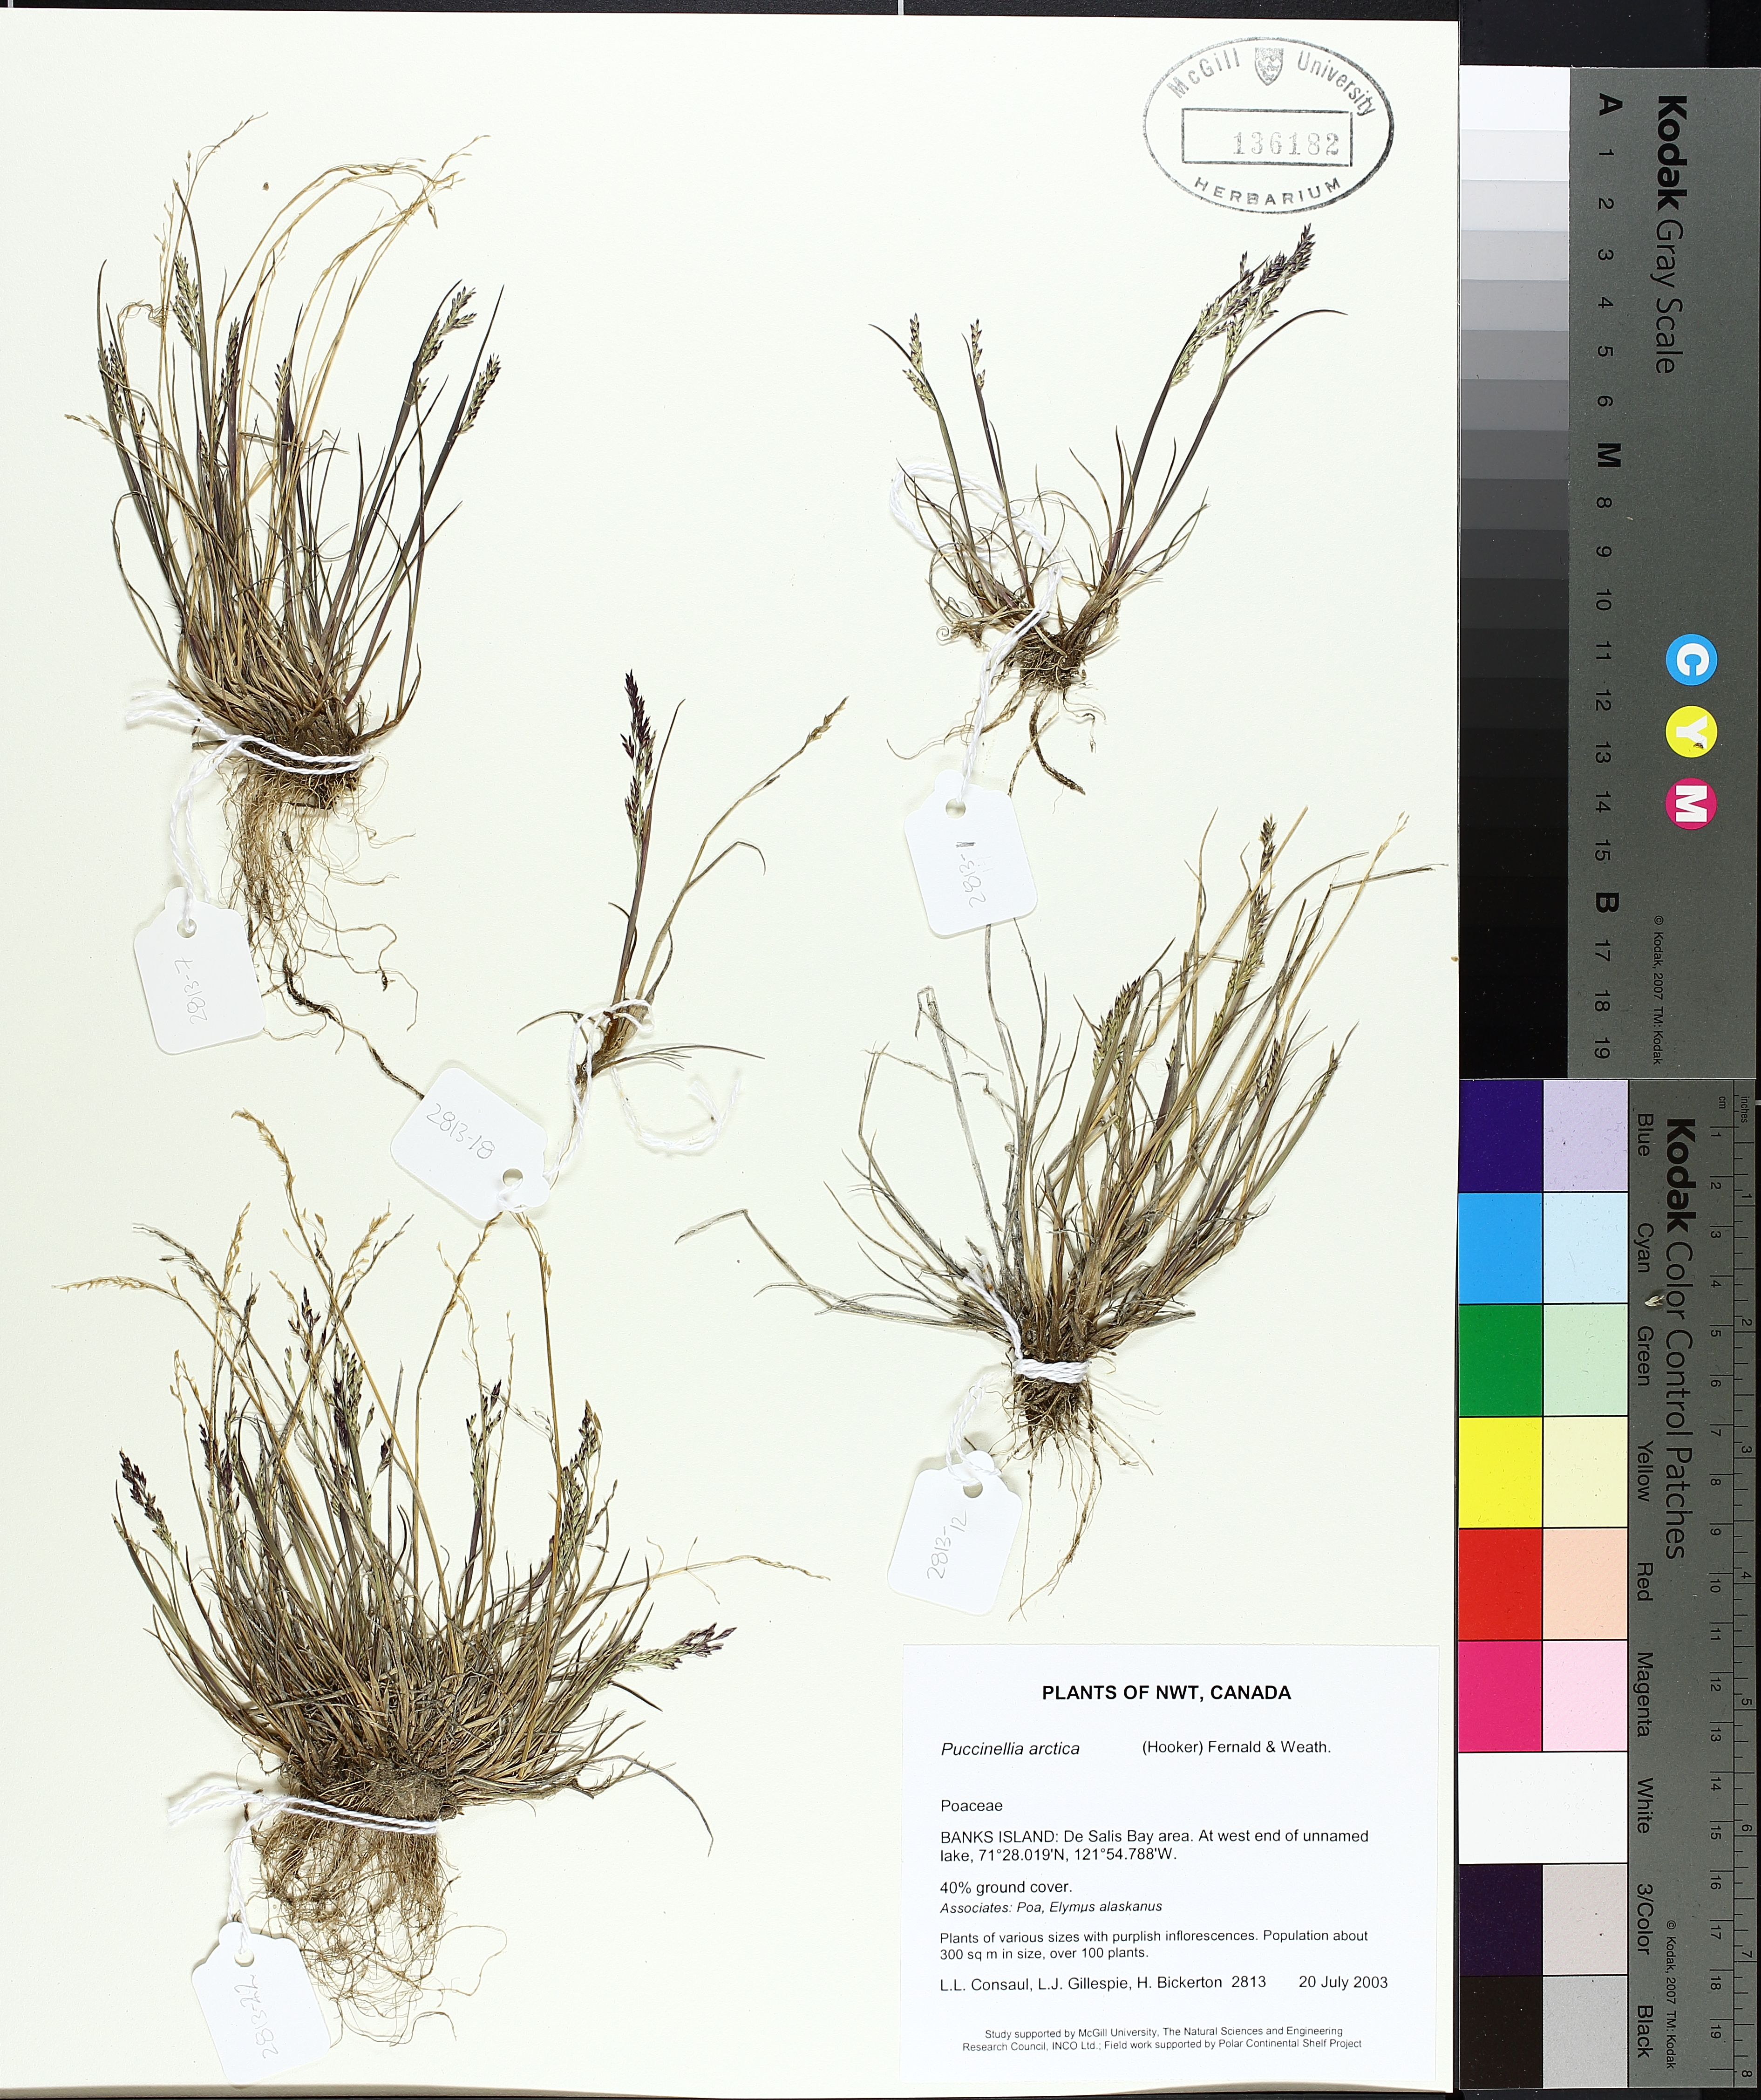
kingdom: Plantae
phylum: Tracheophyta
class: Liliopsida
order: Poales
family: Poaceae
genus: Puccinellia
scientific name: Puccinellia arctica
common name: Arctic alkali grass
